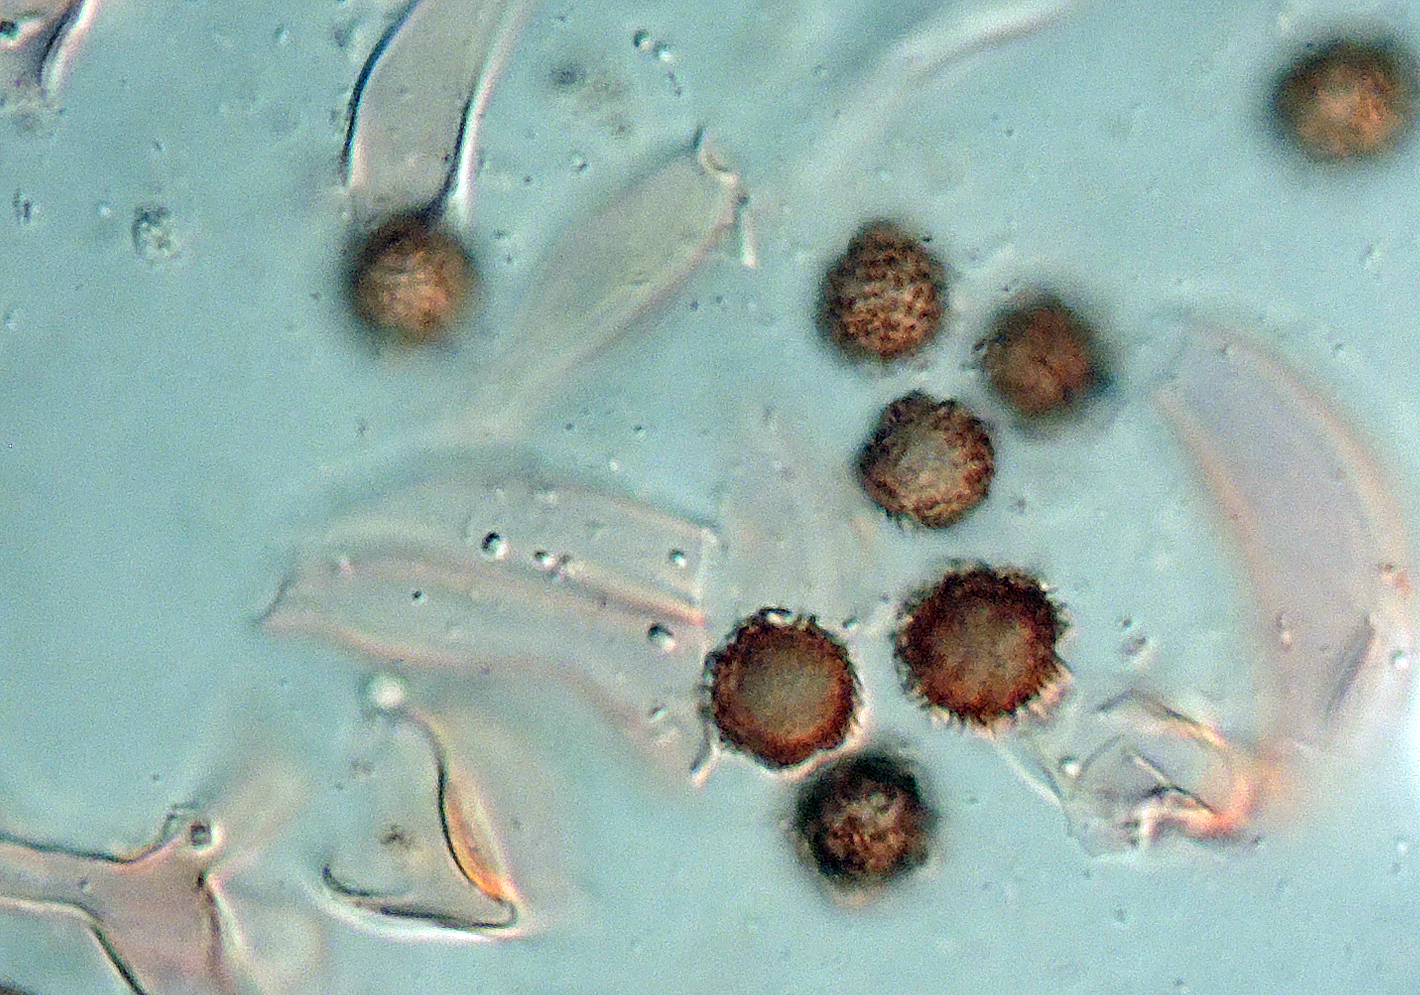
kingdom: Fungi
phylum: Basidiomycota
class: Agaricomycetes
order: Boletales
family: Sclerodermataceae
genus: Scleroderma
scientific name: Scleroderma verrucosum
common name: stilket bruskbold
